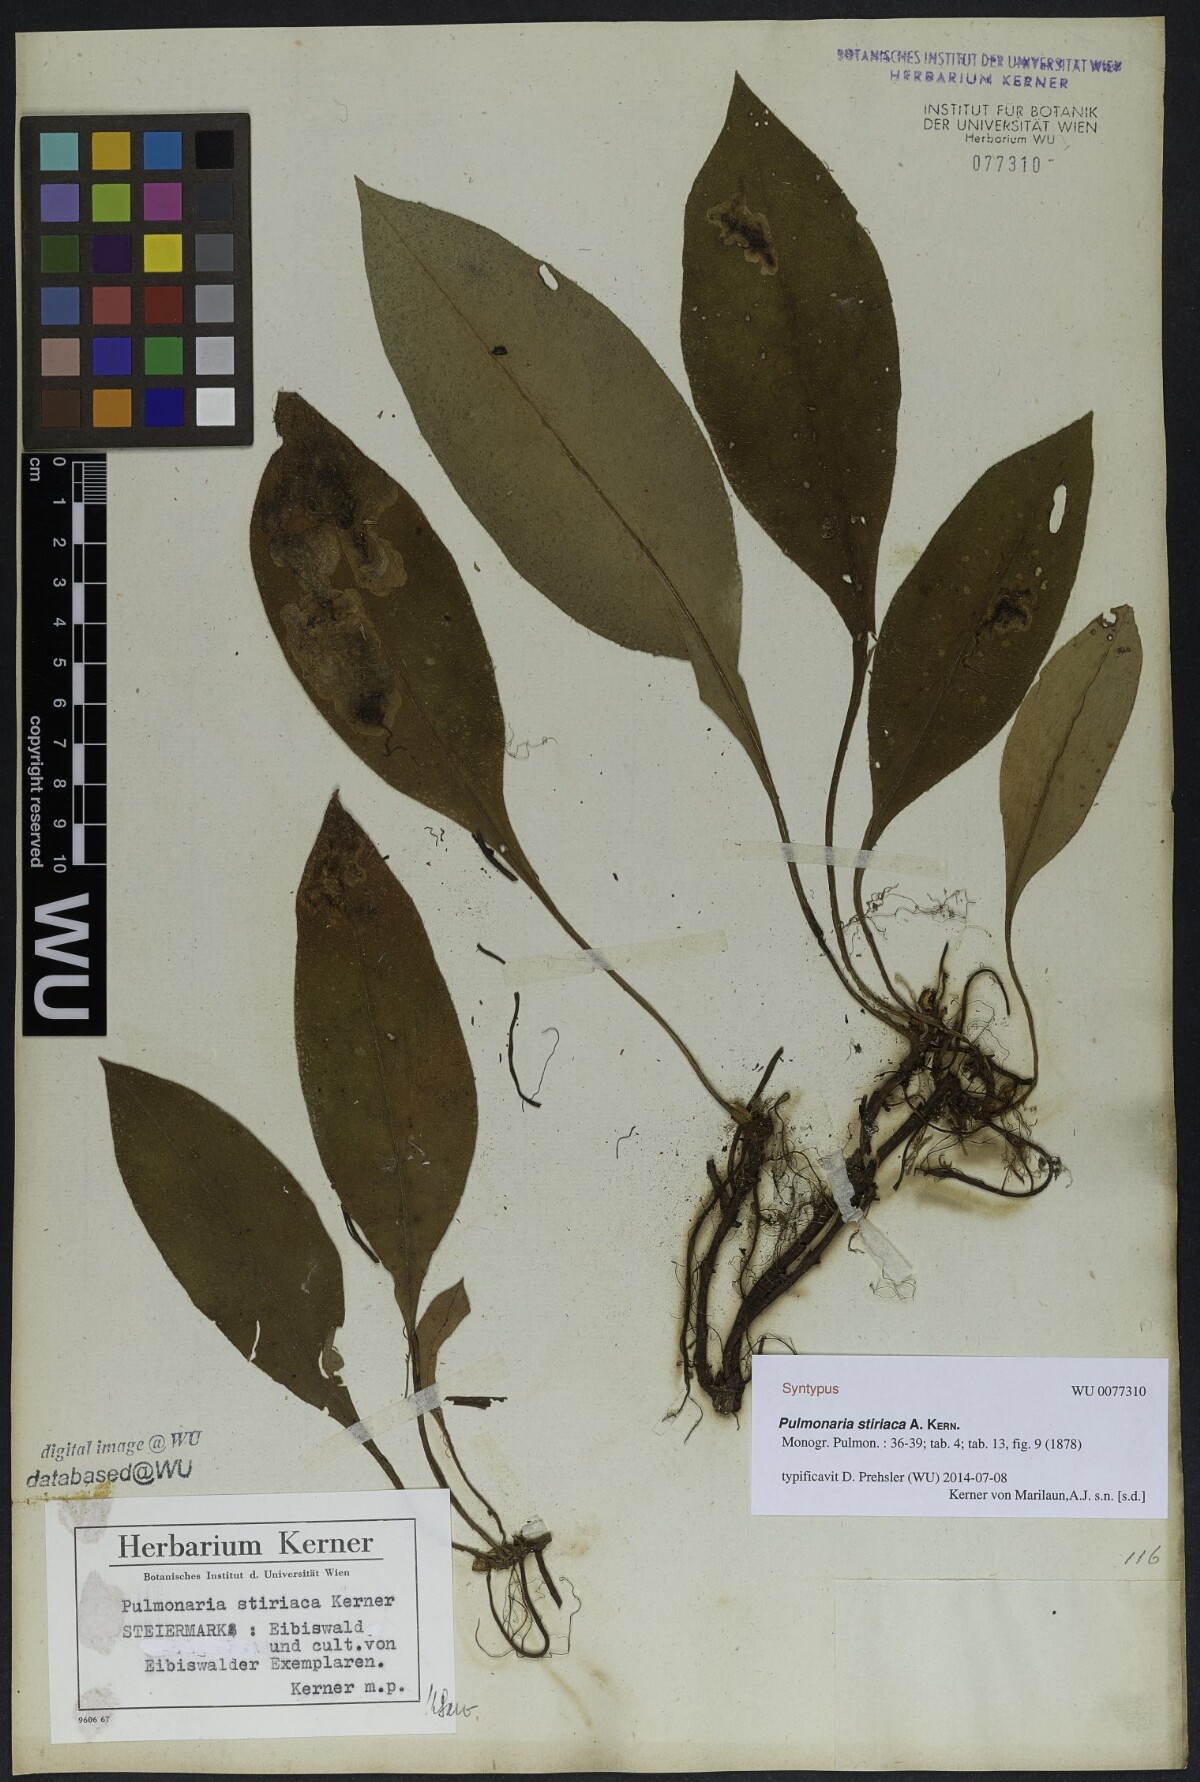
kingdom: Plantae
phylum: Tracheophyta
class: Magnoliopsida
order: Boraginales
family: Boraginaceae
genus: Pulmonaria
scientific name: Pulmonaria stiriaca
